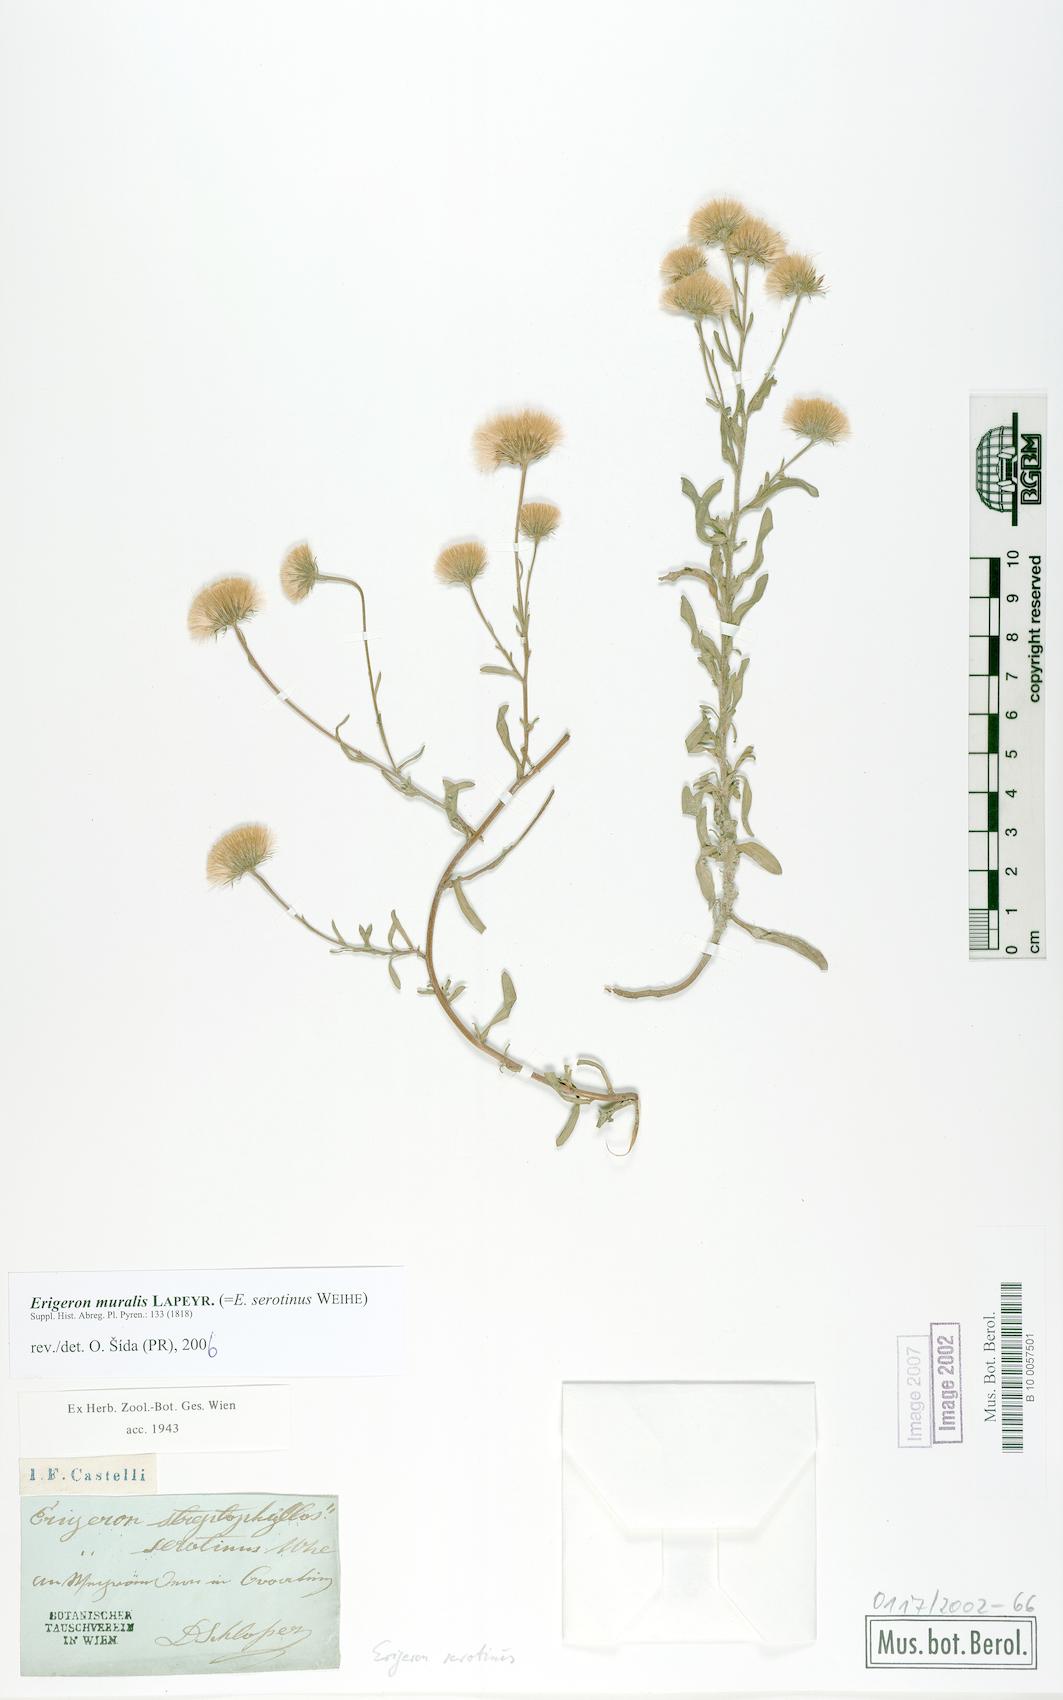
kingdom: Plantae
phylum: Tracheophyta
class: Magnoliopsida
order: Asterales
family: Asteraceae
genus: Erigeron
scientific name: Erigeron muralis
